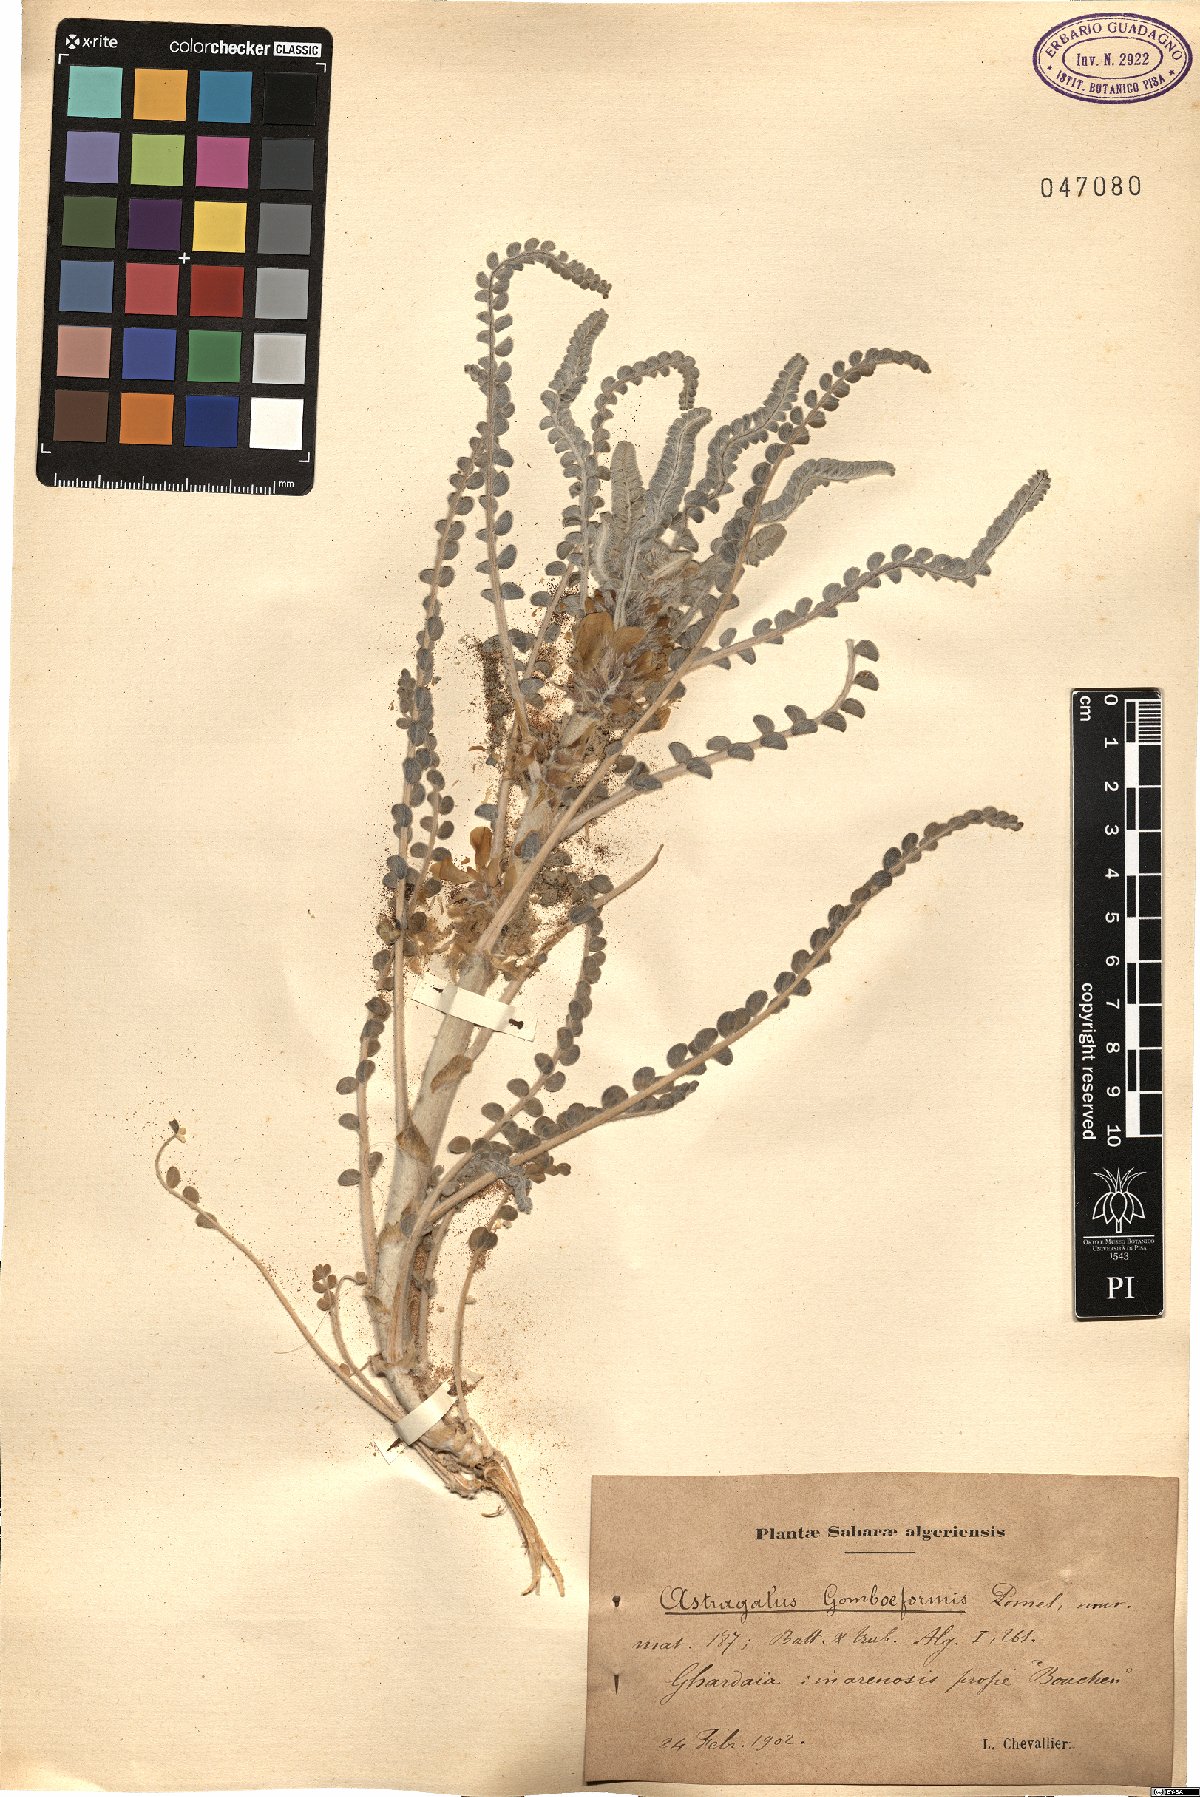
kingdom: Plantae
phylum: Tracheophyta
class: Magnoliopsida
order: Fabales
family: Fabaceae
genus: Astragalus
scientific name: Astragalus gombo
